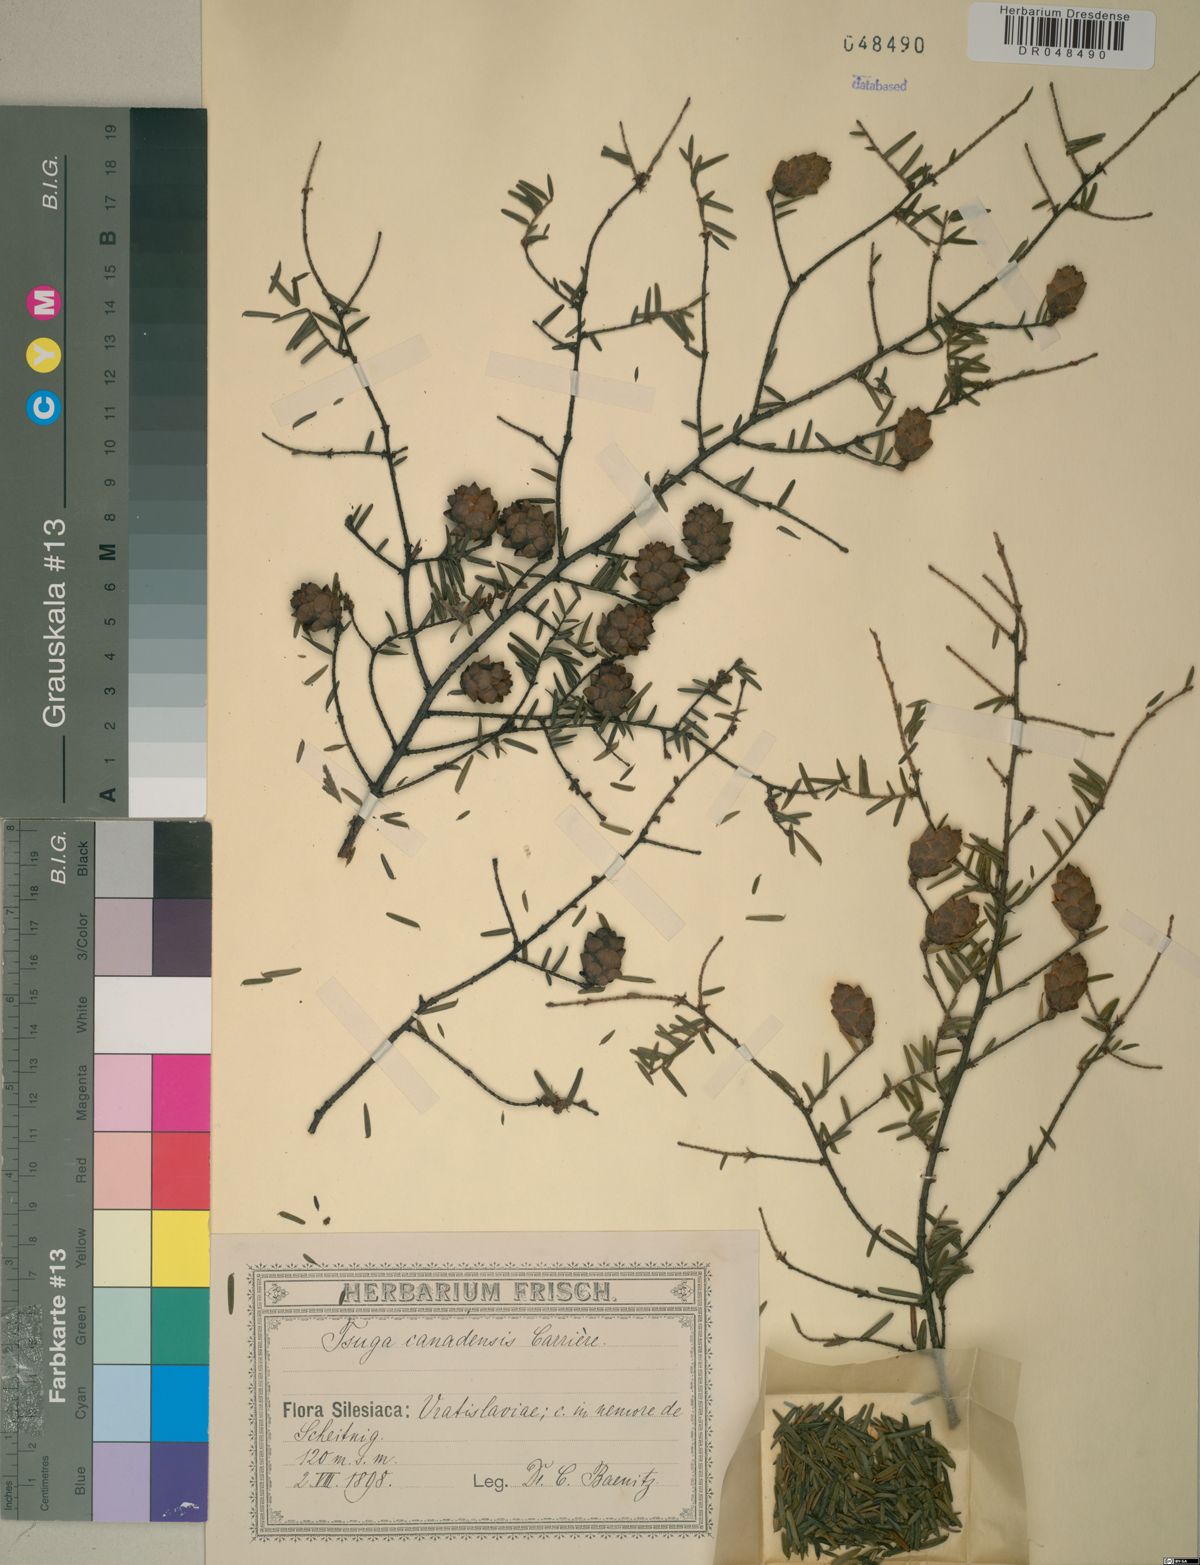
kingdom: Plantae
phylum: Tracheophyta
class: Pinopsida
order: Pinales
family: Pinaceae
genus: Tsuga
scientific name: Tsuga canadensis
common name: Eastern hemlock
